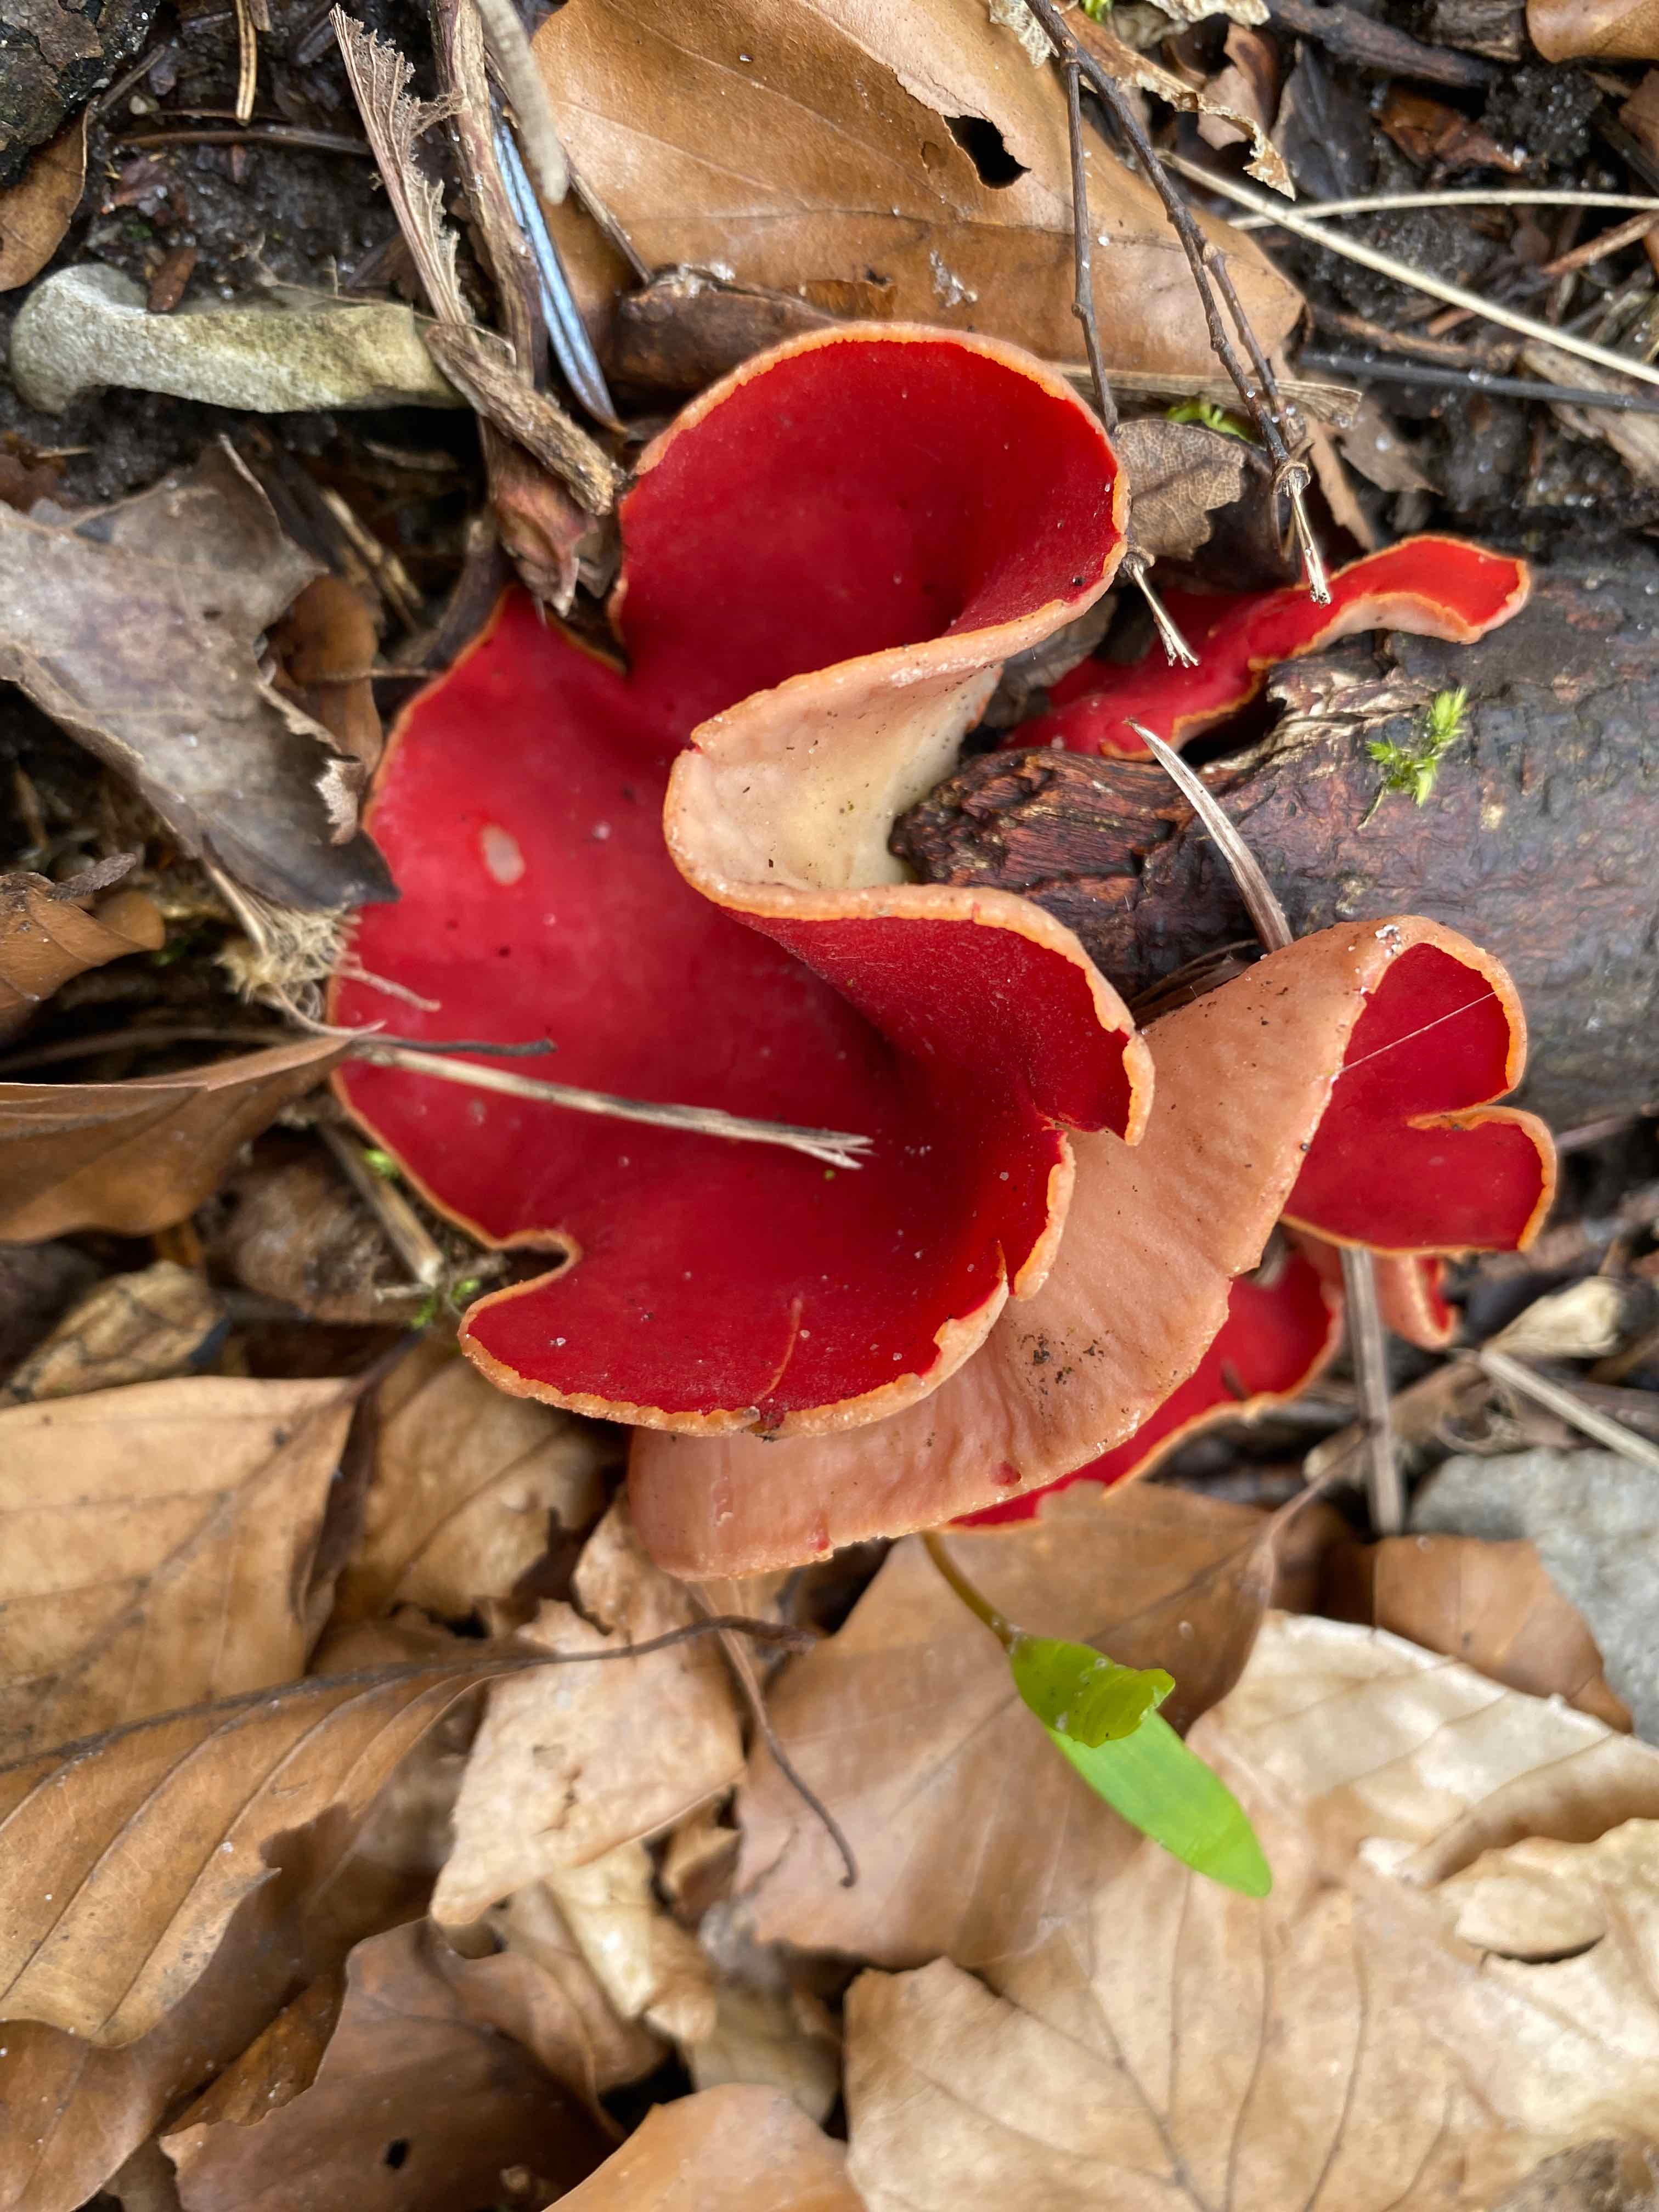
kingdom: Fungi
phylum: Ascomycota
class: Pezizomycetes
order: Pezizales
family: Sarcoscyphaceae
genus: Sarcoscypha
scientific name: Sarcoscypha austriaca
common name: krølhåret pragtbæger
